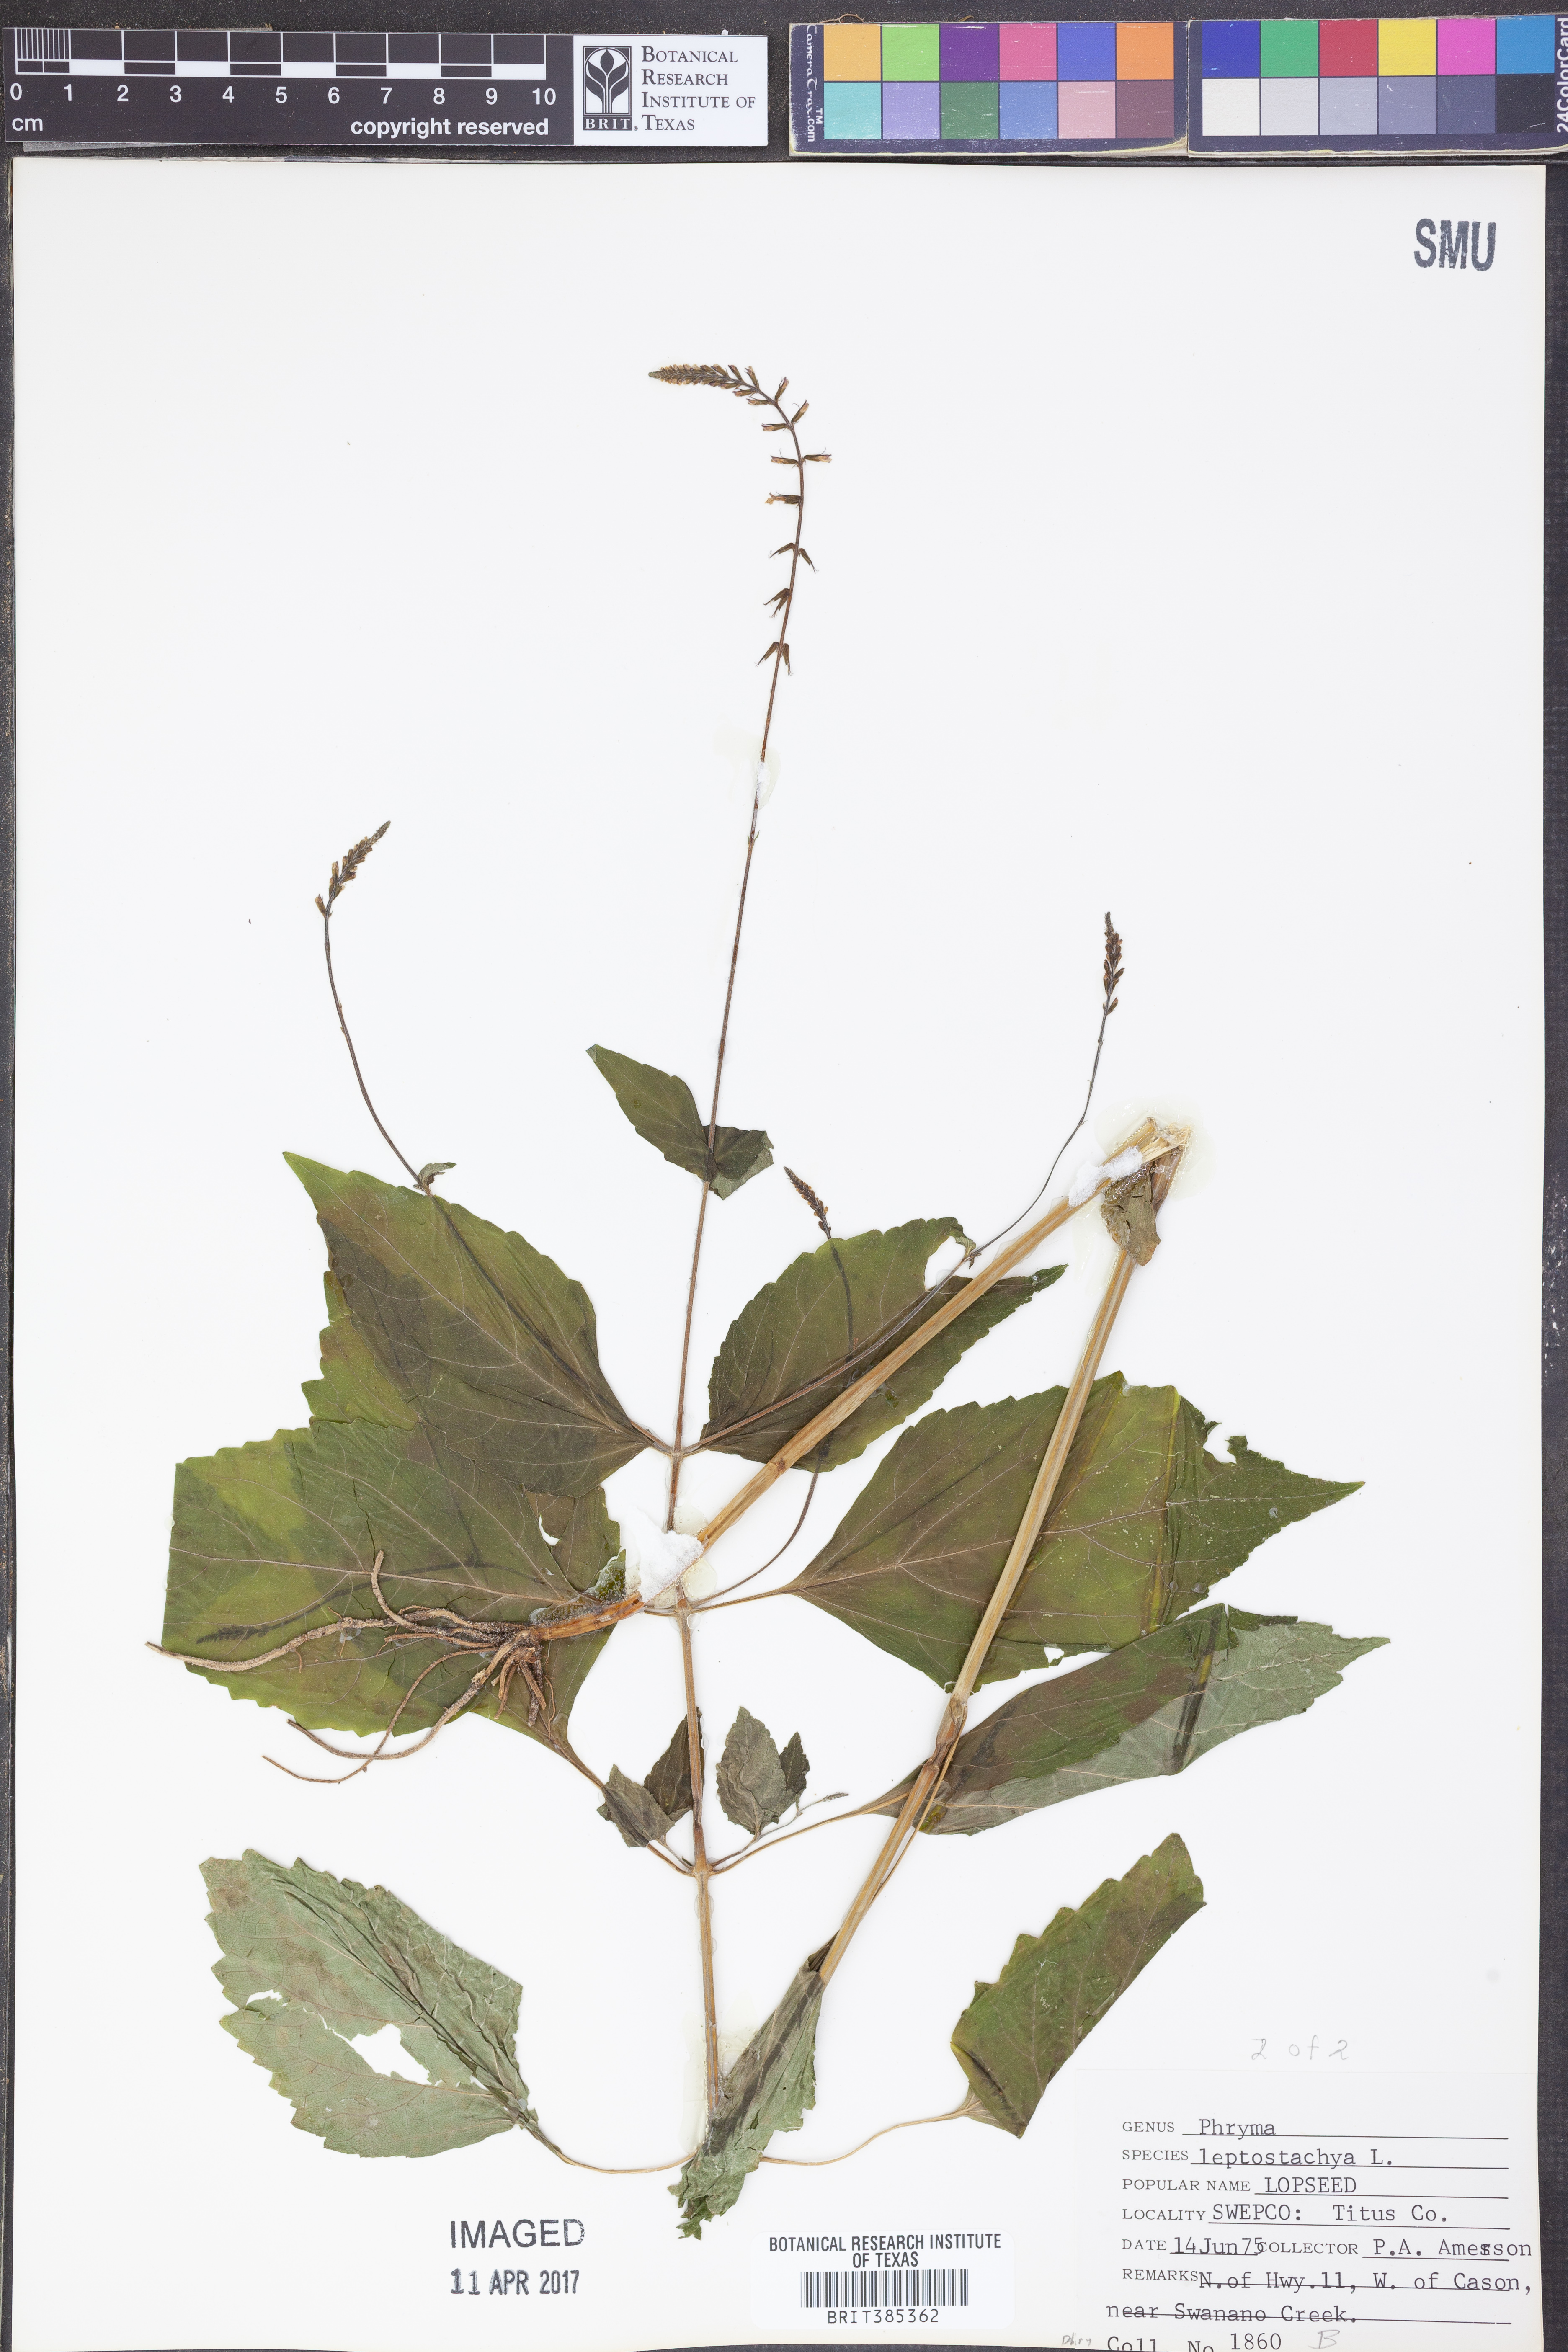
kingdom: Plantae
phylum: Tracheophyta
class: Magnoliopsida
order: Lamiales
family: Phrymaceae
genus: Phryma
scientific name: Phryma leptostachya
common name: American lopseed
